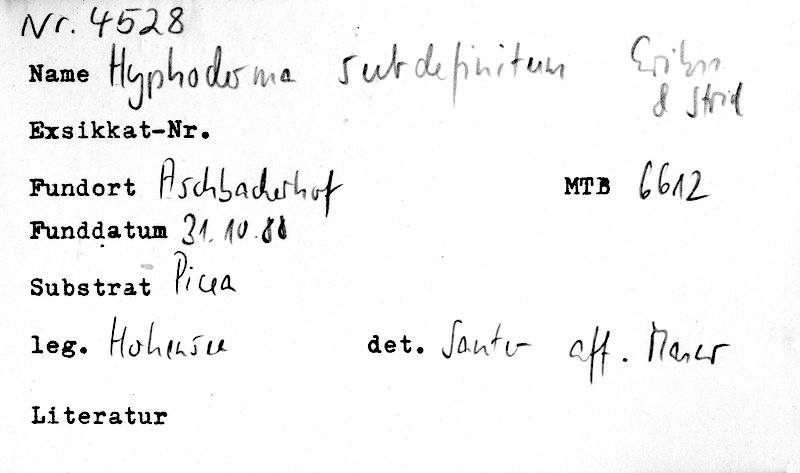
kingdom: Fungi
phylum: Basidiomycota
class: Agaricomycetes
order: Polyporales
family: Hyphodermataceae
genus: Hyphoderma
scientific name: Hyphoderma occidentale
